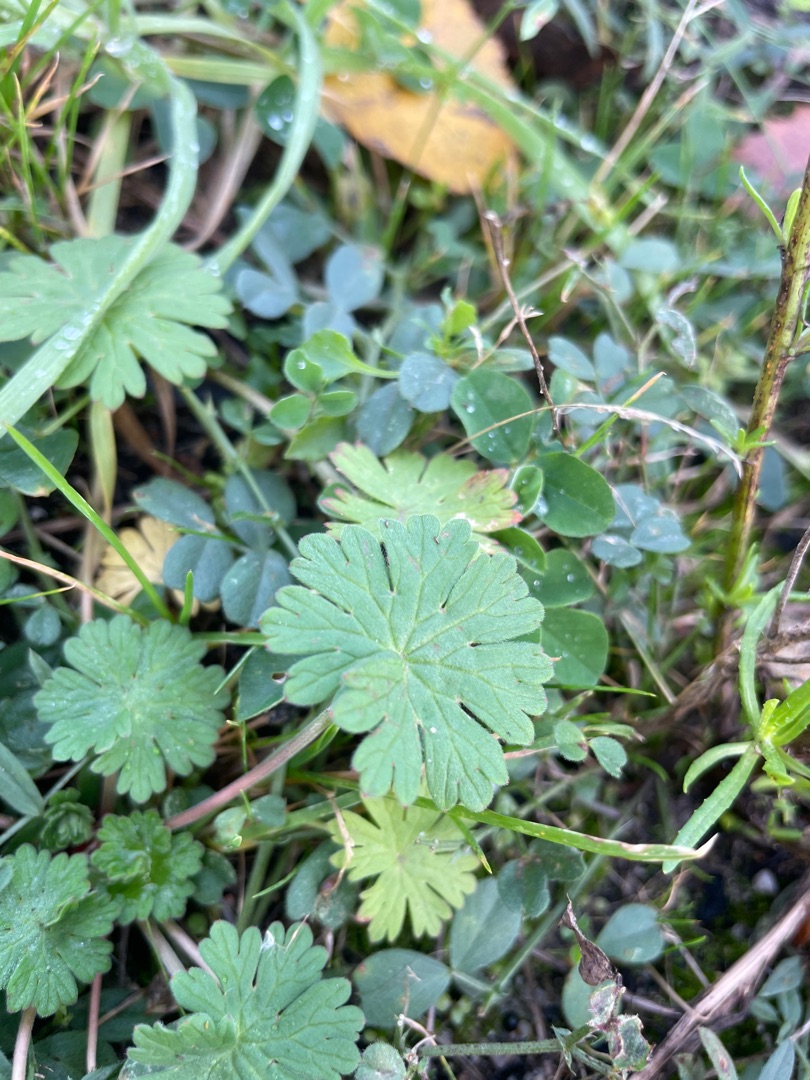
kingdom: Plantae
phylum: Tracheophyta
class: Magnoliopsida
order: Geraniales
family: Geraniaceae
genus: Geranium
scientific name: Geranium pusillum
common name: Liden storkenæb
